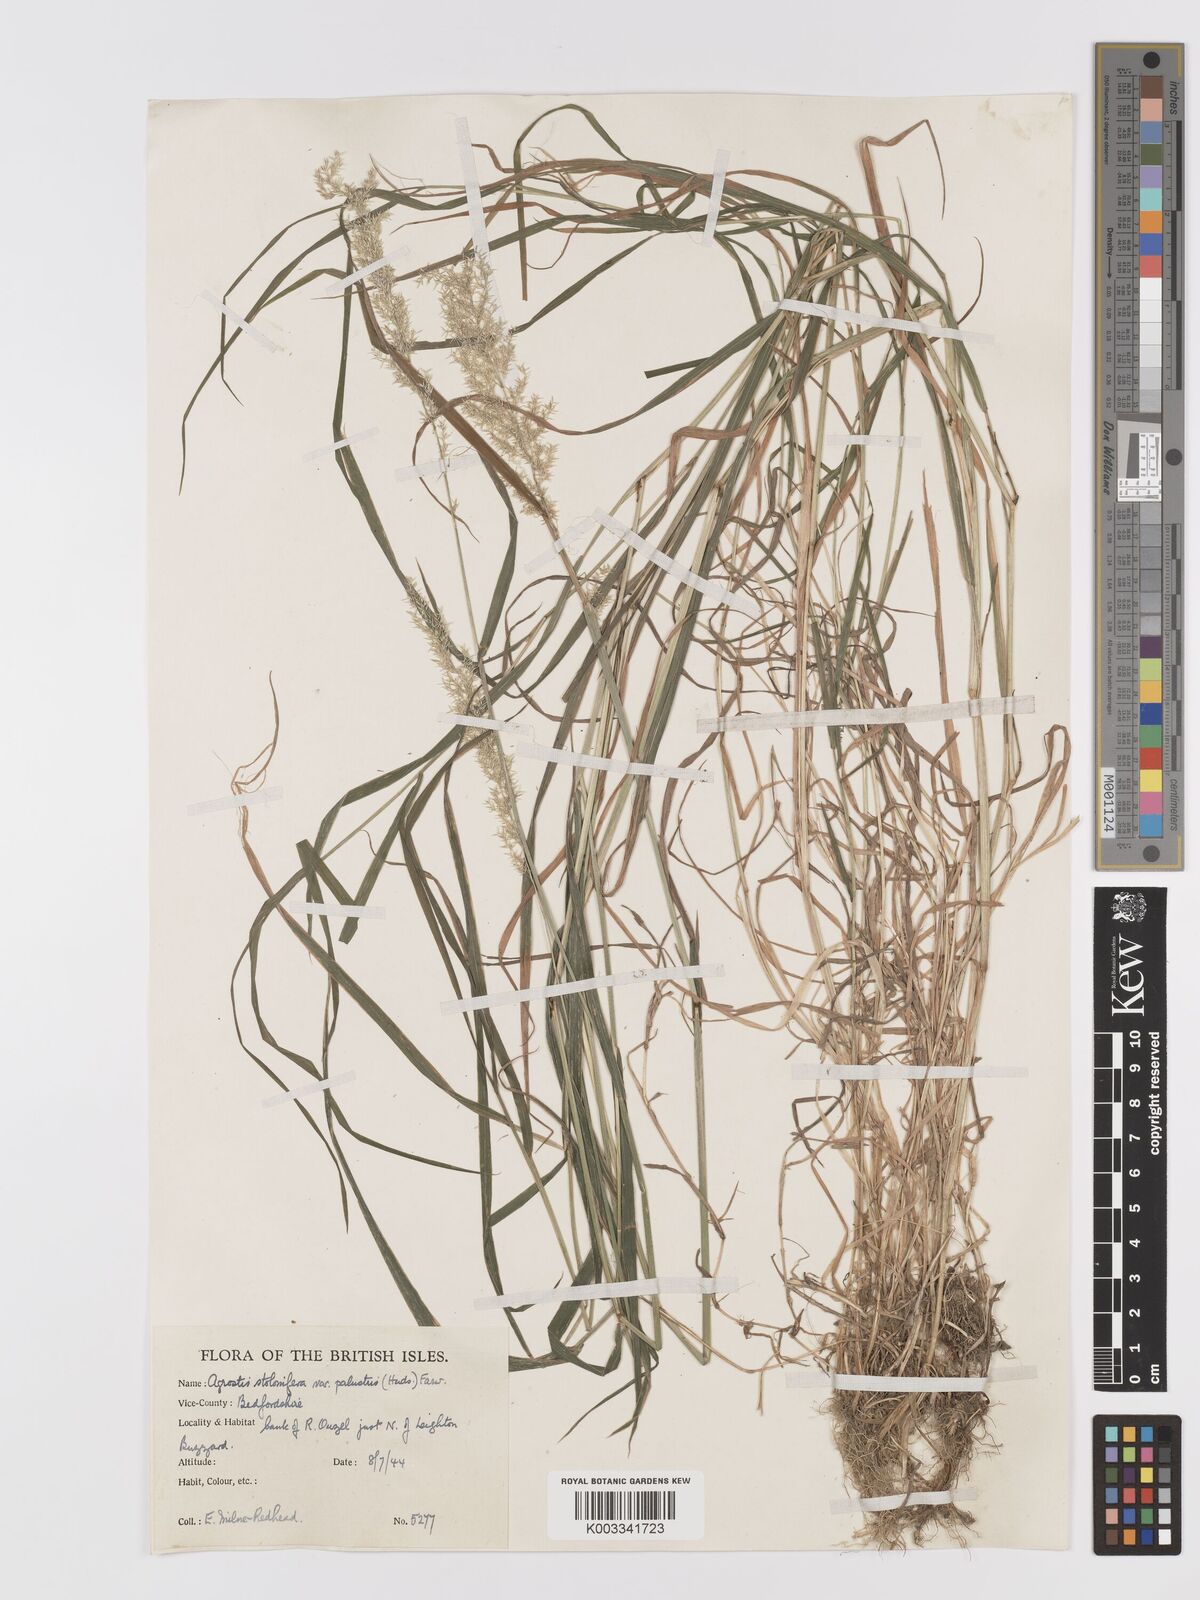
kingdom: Plantae
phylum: Tracheophyta
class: Liliopsida
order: Poales
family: Poaceae
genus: Agrostis
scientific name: Agrostis stolonifera
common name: Creeping bentgrass
